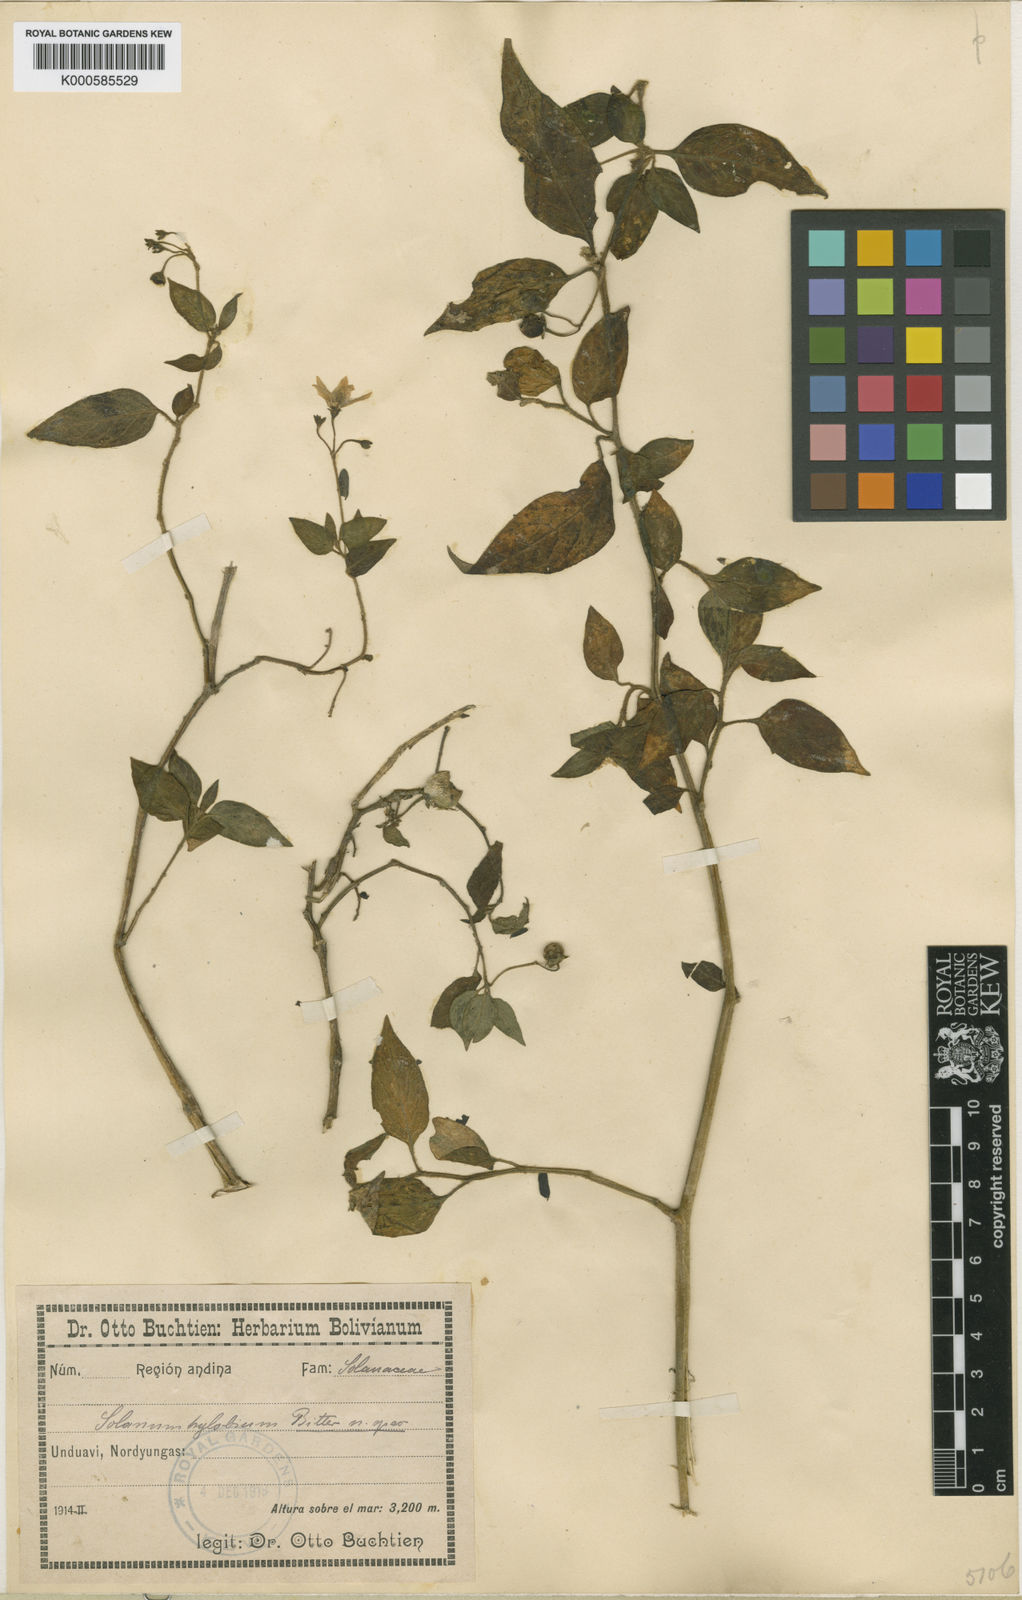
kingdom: Plantae
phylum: Tracheophyta
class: Magnoliopsida
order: Solanales
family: Solanaceae
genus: Solanum
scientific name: Solanum pallidum
